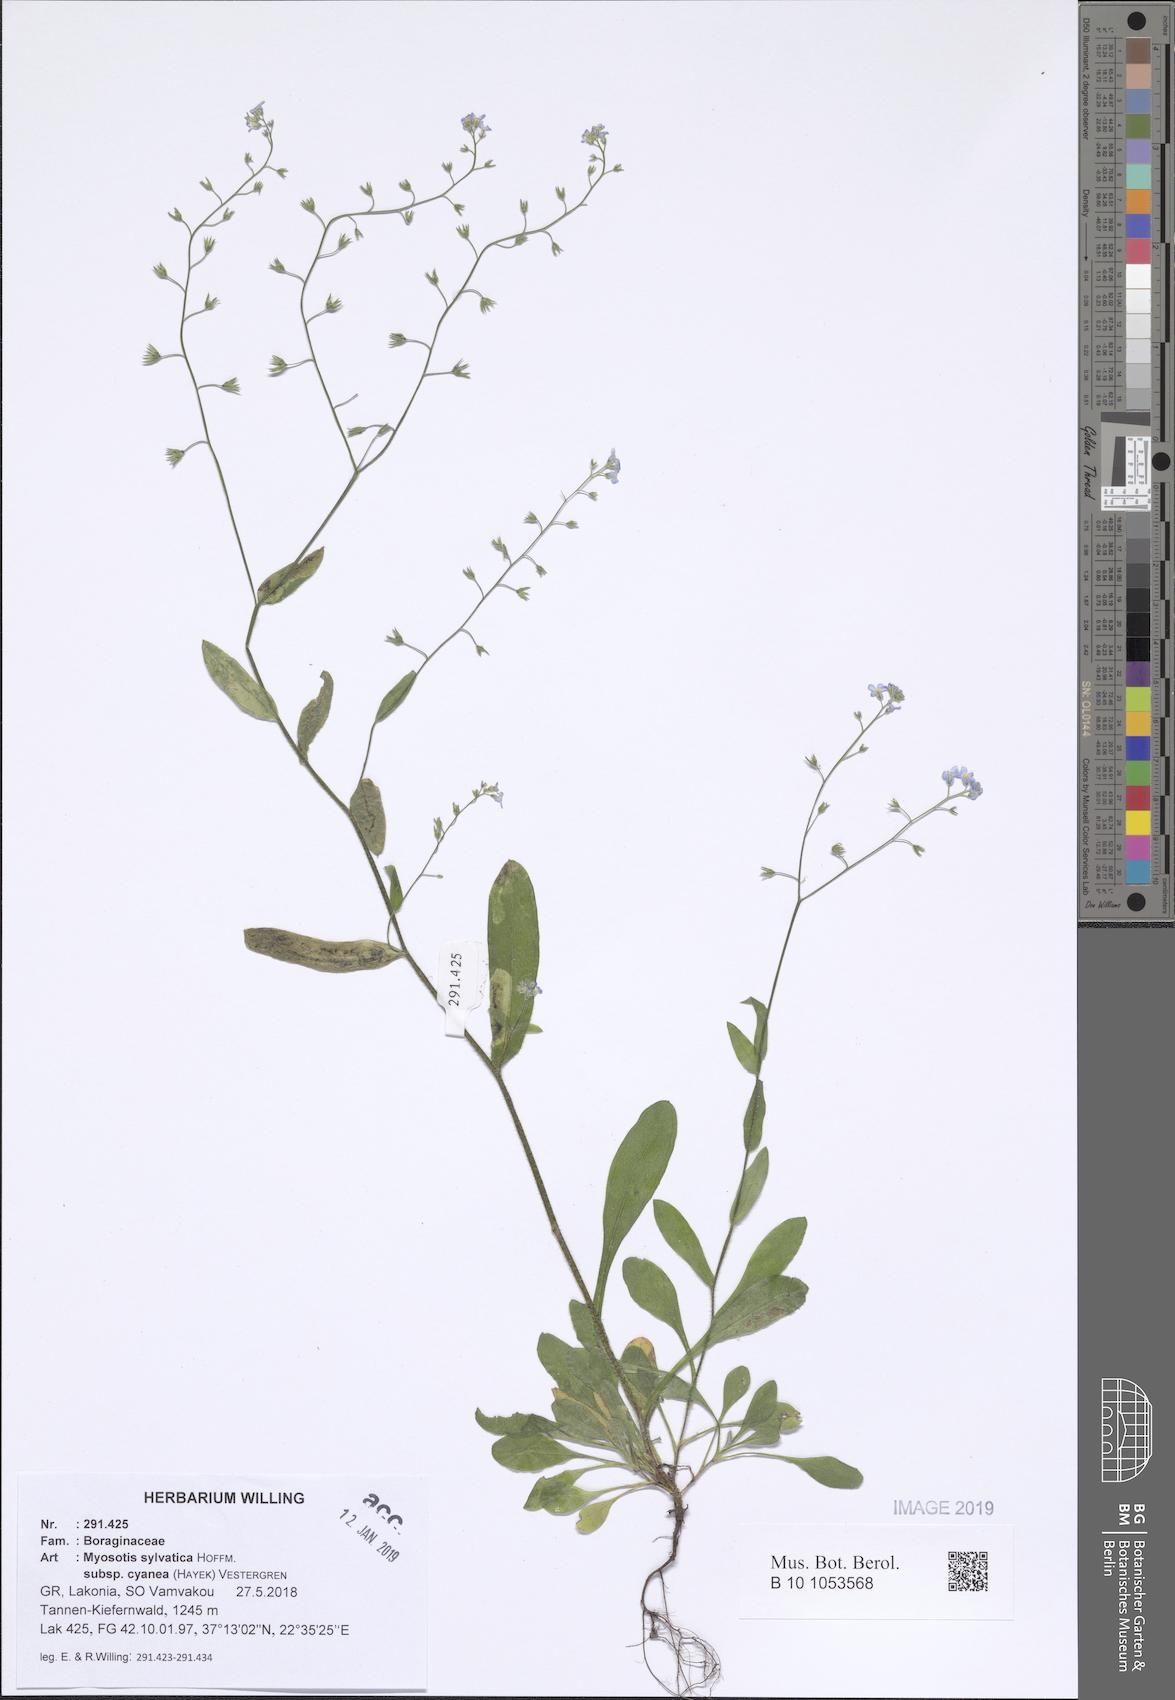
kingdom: Plantae
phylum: Tracheophyta
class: Magnoliopsida
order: Boraginales
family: Boraginaceae
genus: Myosotis
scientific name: Myosotis sylvatica
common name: Wood forget-me-not
